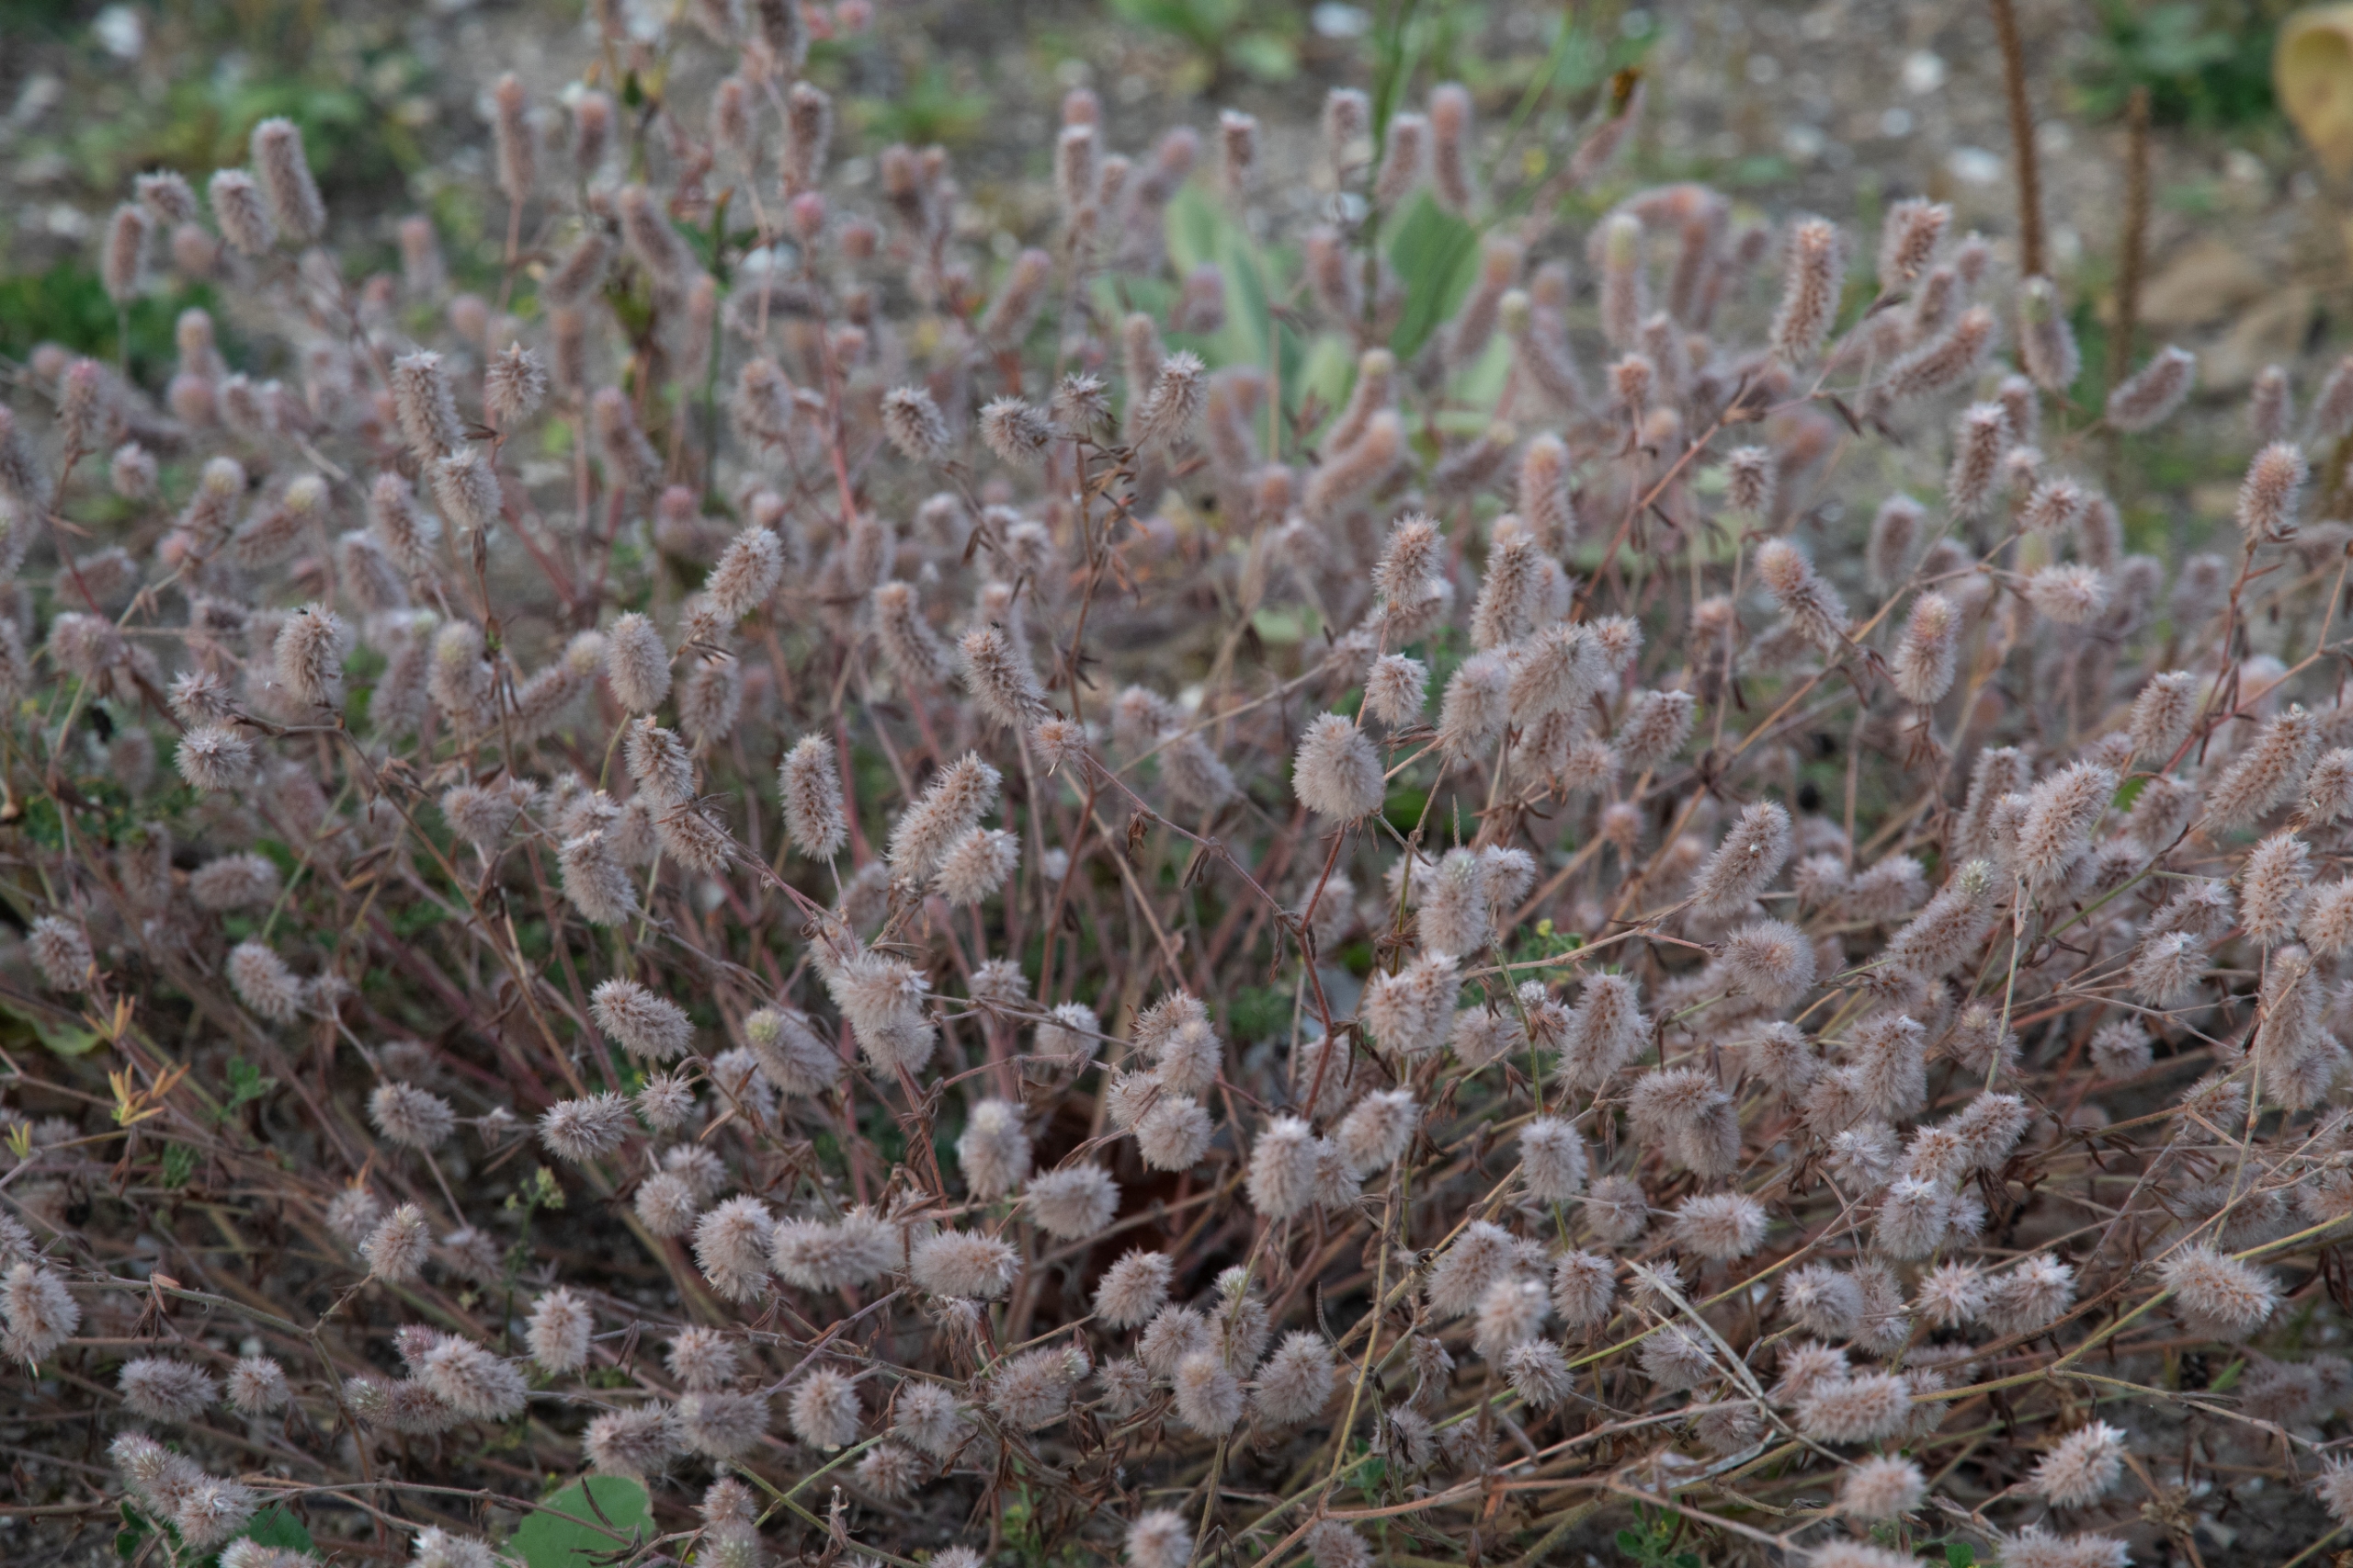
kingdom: Plantae
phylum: Tracheophyta
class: Magnoliopsida
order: Fabales
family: Fabaceae
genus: Trifolium
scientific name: Trifolium arvense
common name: Hare-kløver
